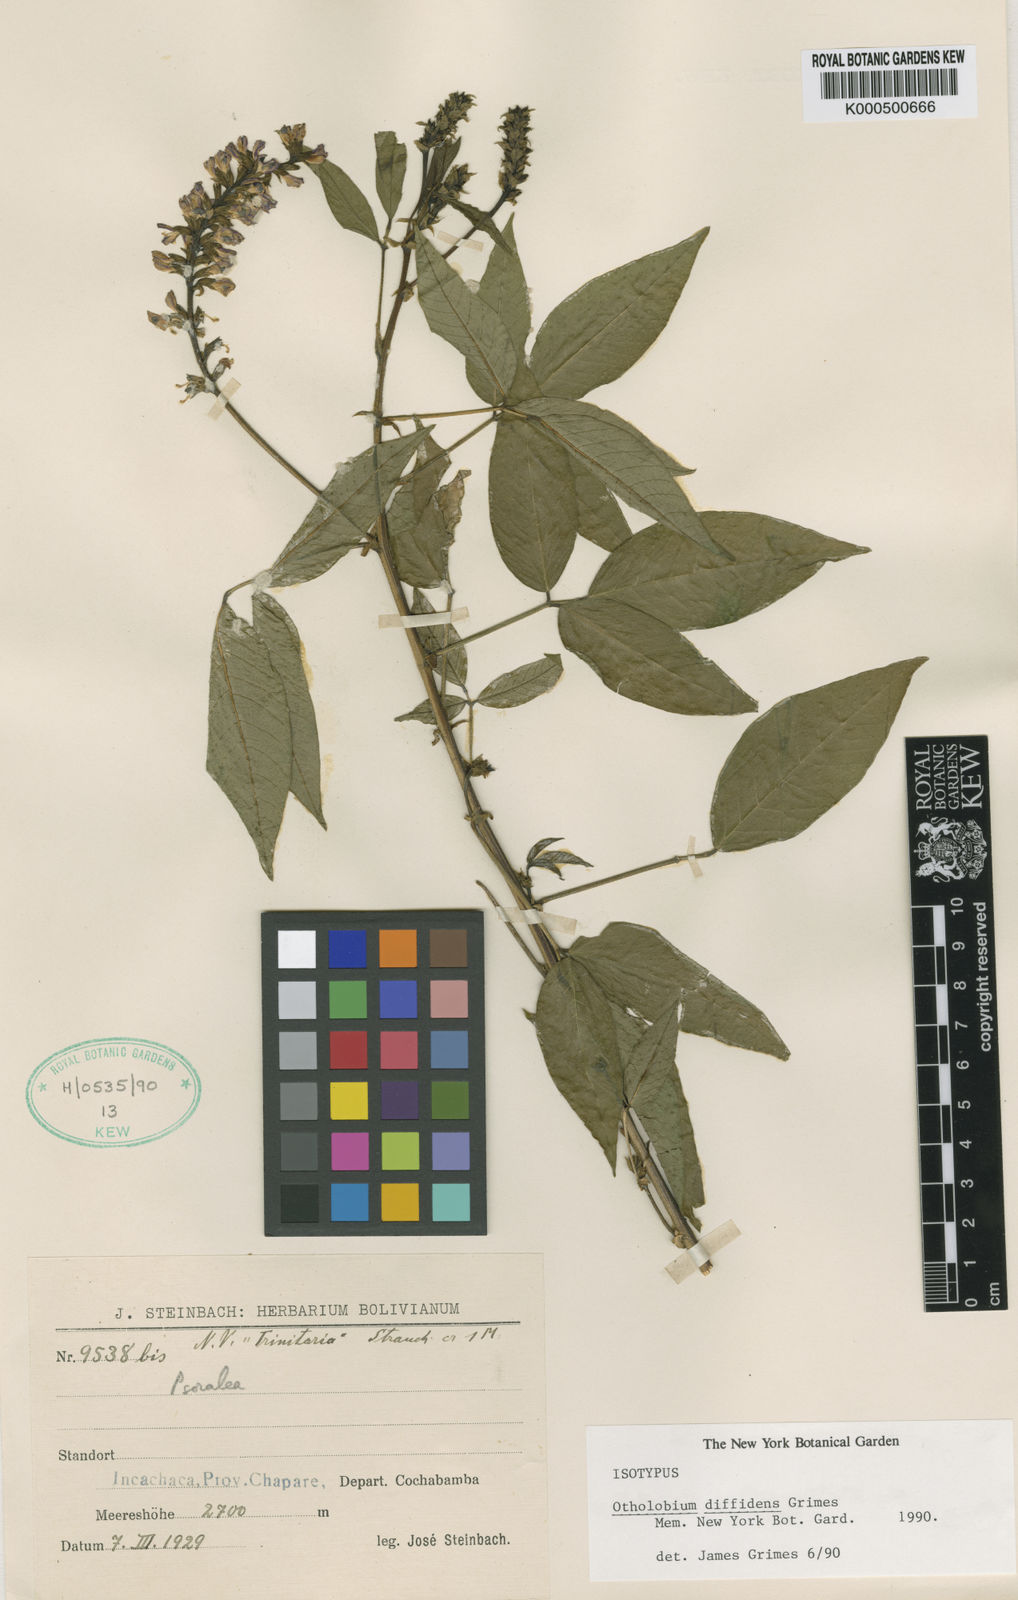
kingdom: Plantae
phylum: Tracheophyta
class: Magnoliopsida
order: Fabales
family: Fabaceae
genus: Psoralea
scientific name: Psoralea Otholobium diffidens
